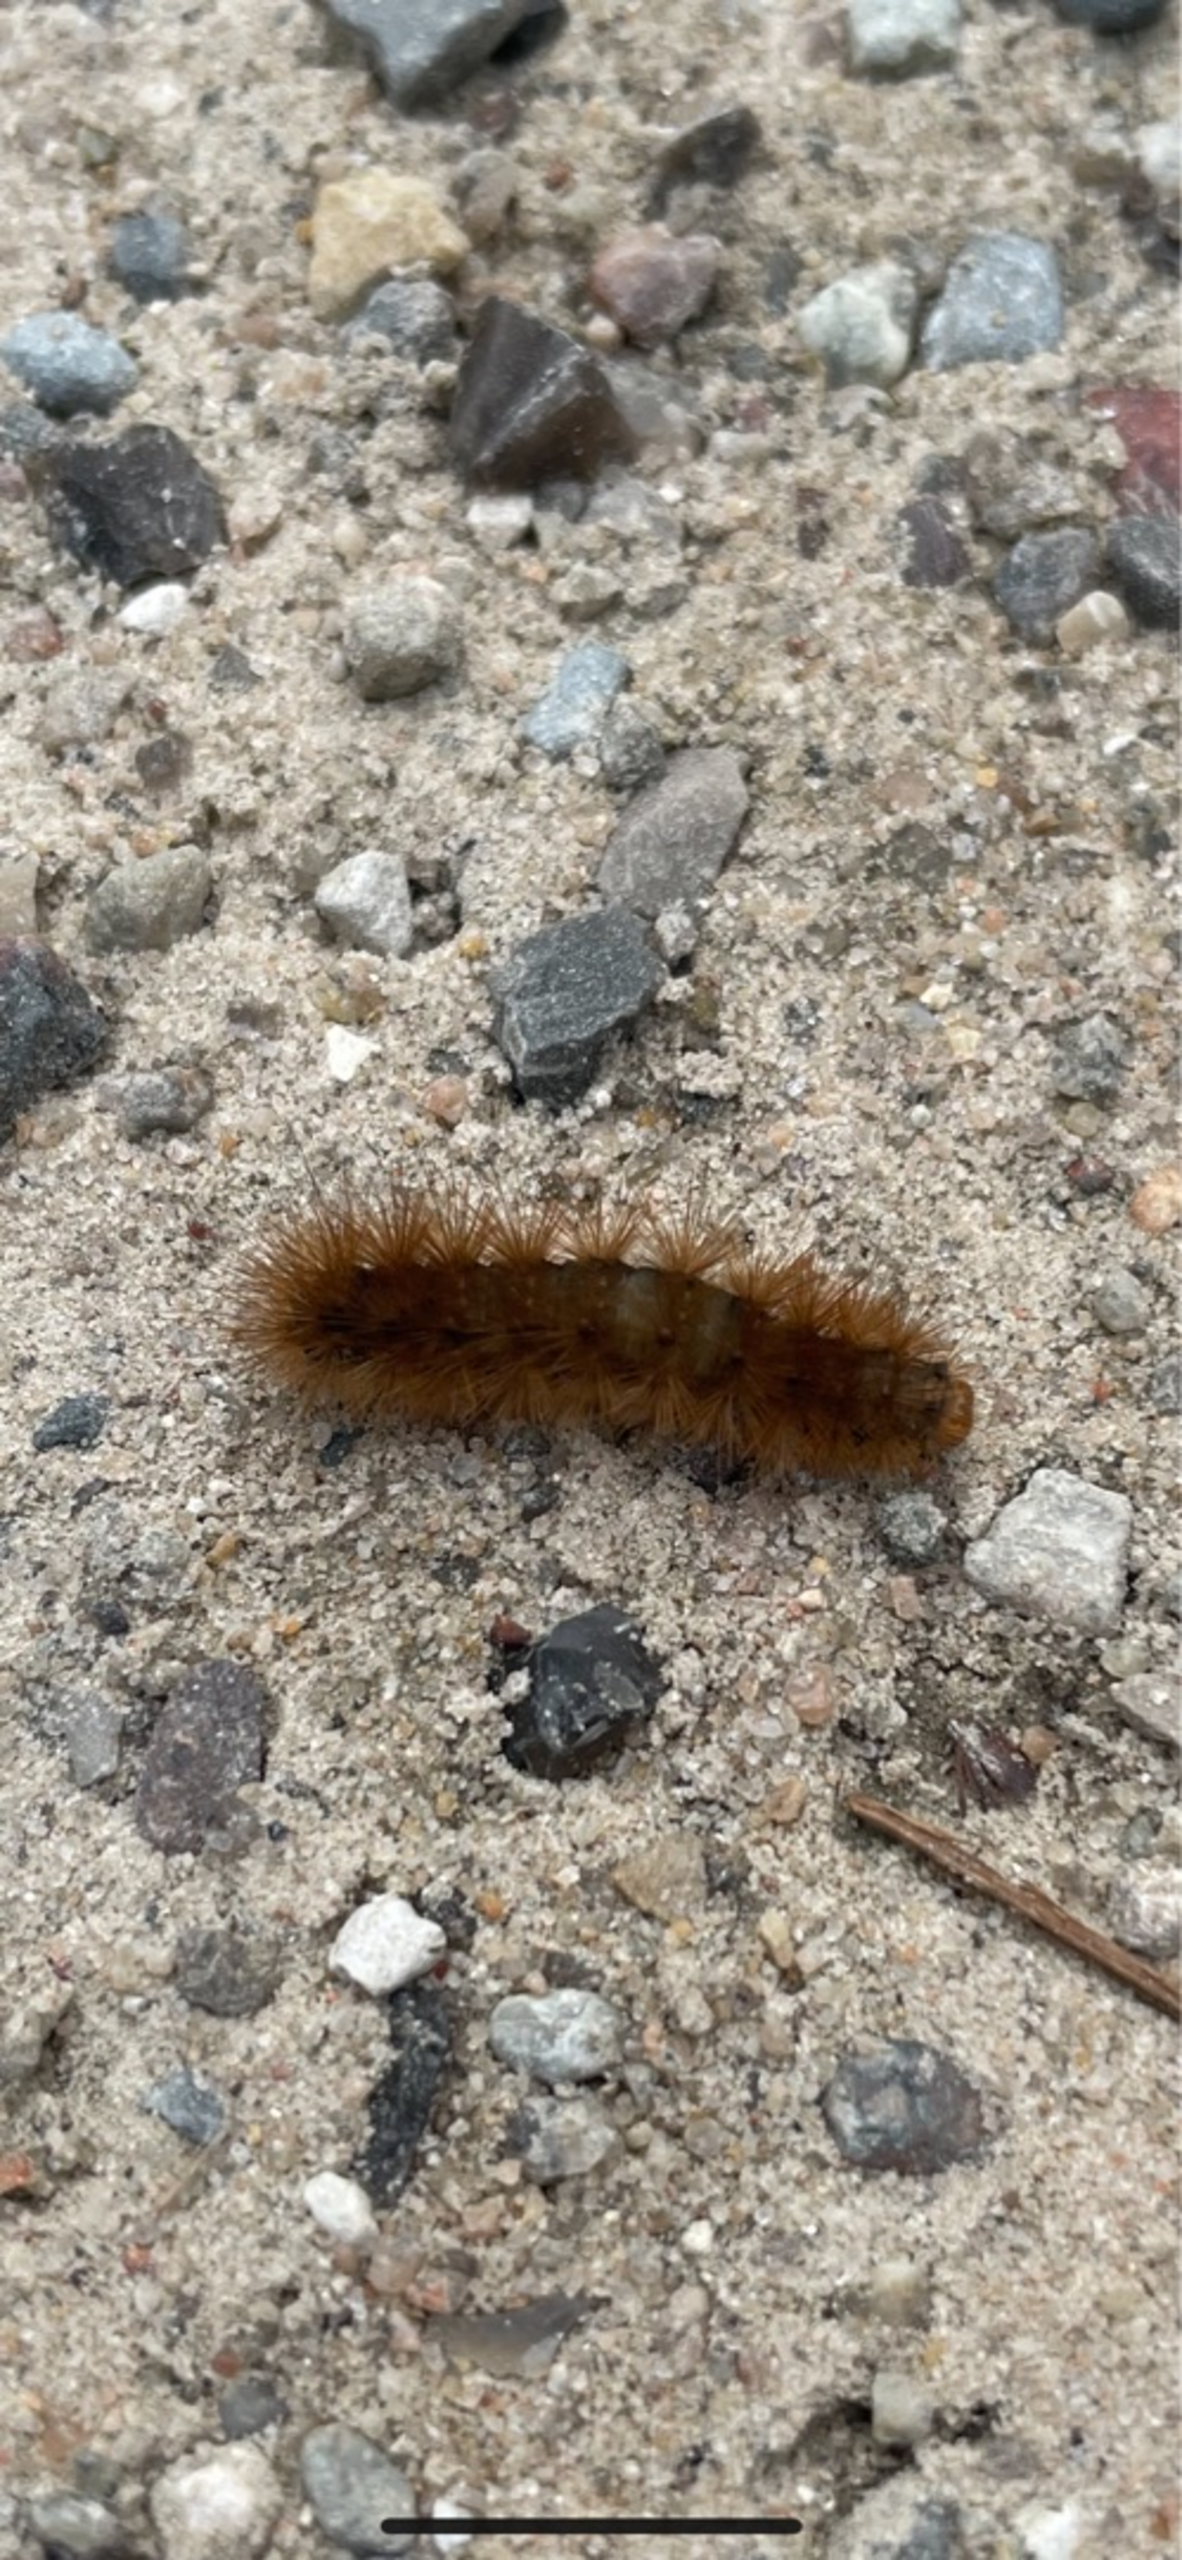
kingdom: Animalia
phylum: Arthropoda
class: Insecta
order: Lepidoptera
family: Erebidae
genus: Phragmatobia
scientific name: Phragmatobia fuliginosa
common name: Kanelbjørn
